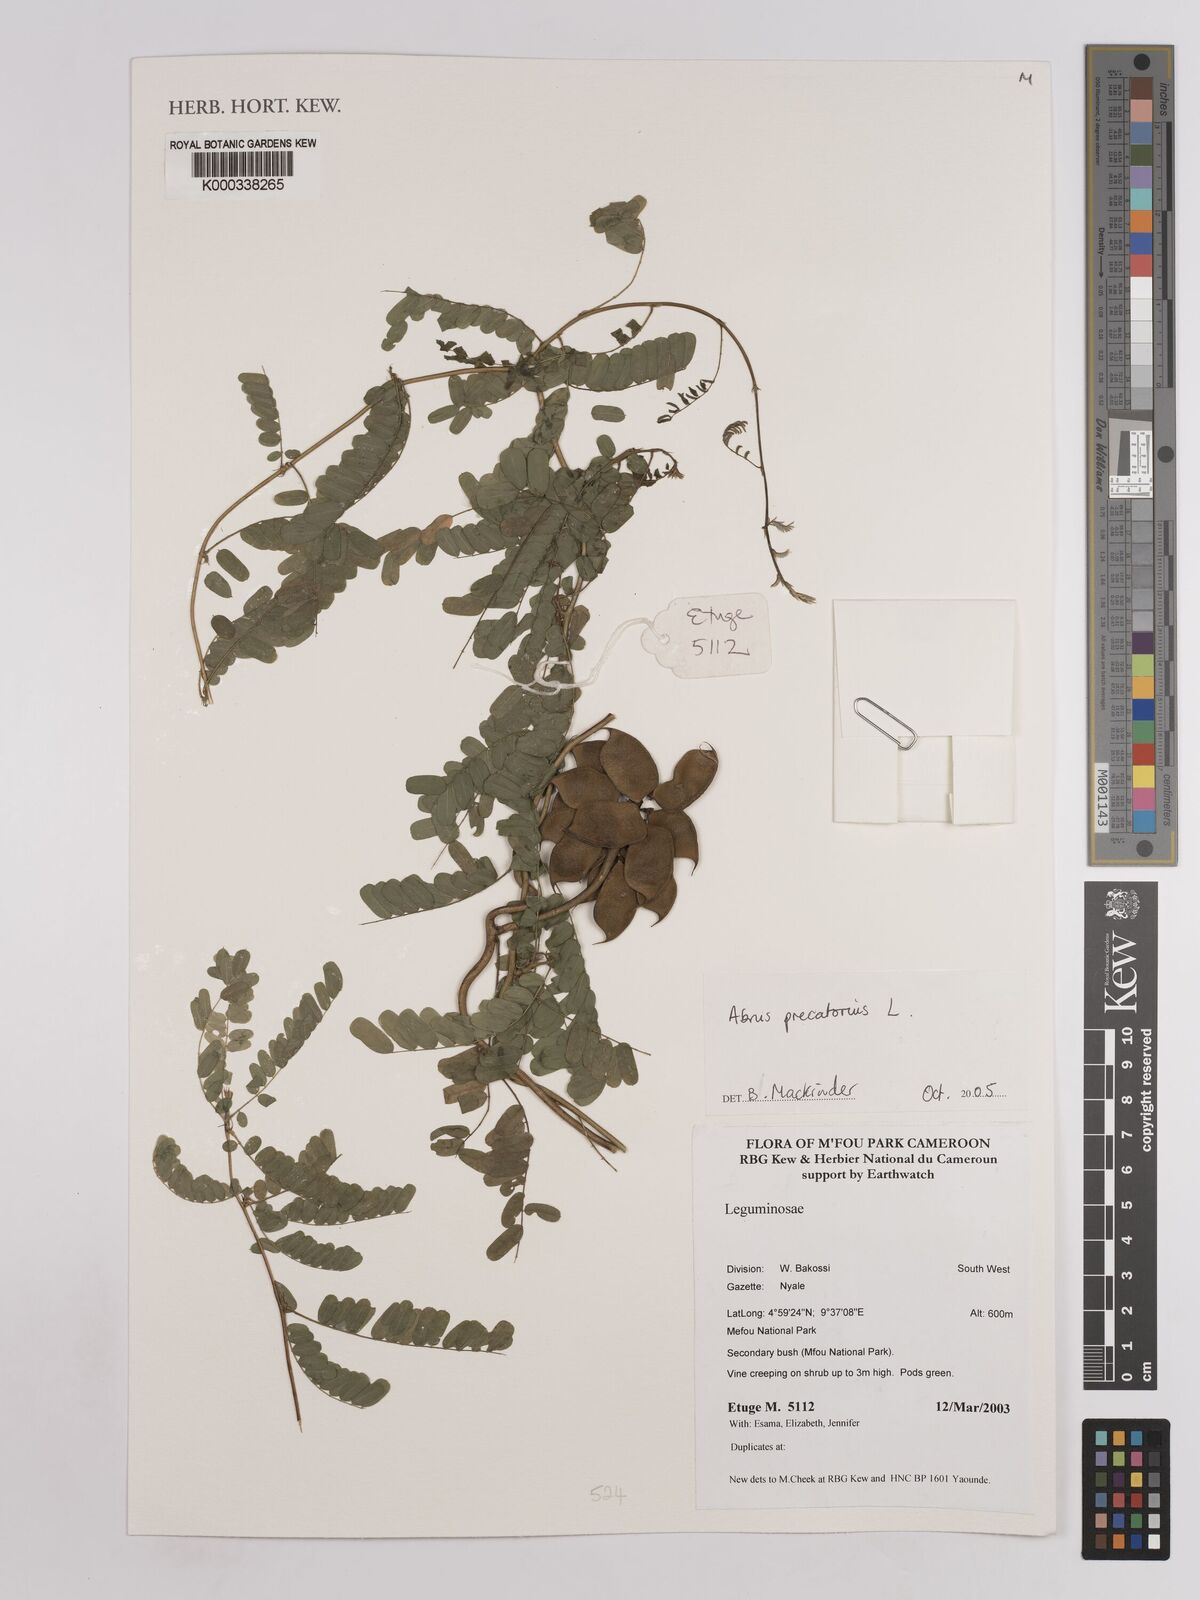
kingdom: Plantae
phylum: Tracheophyta
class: Magnoliopsida
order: Fabales
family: Fabaceae
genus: Abrus
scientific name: Abrus precatorius
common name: Rosarypea
